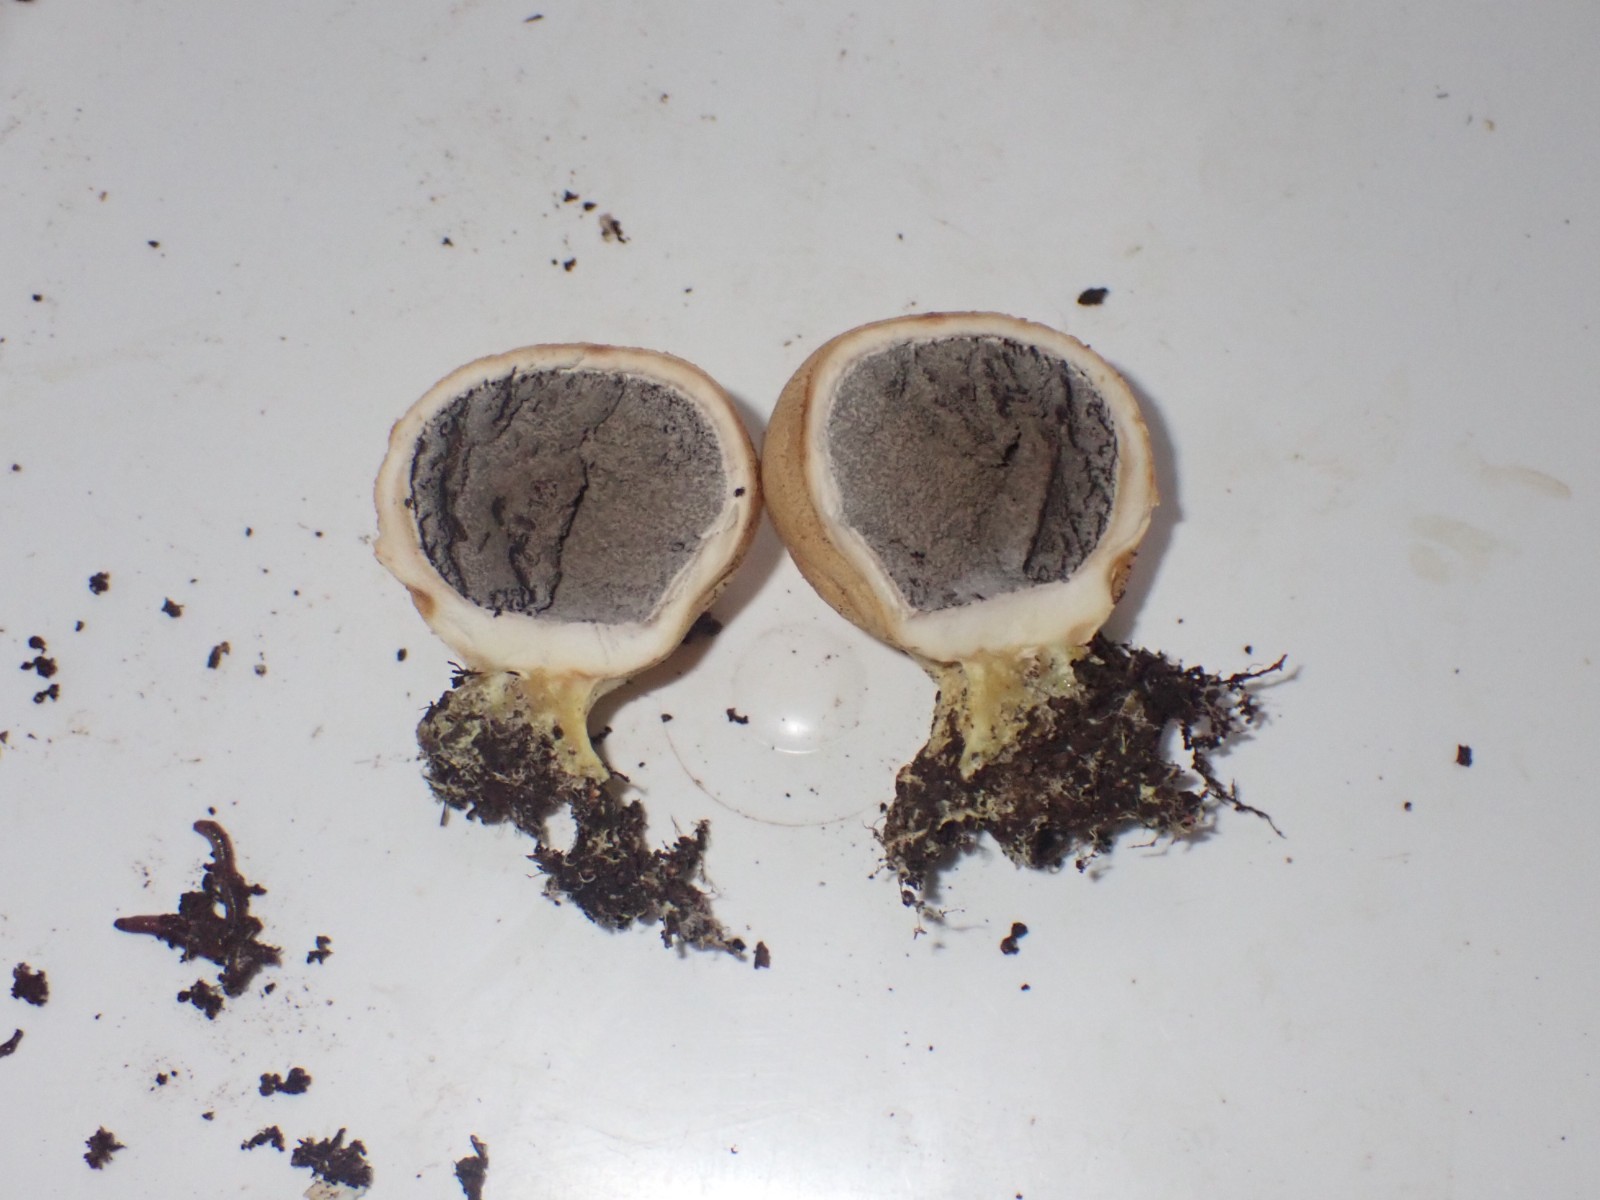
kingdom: Fungi
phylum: Basidiomycota
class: Agaricomycetes
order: Boletales
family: Sclerodermataceae
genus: Scleroderma
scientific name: Scleroderma
